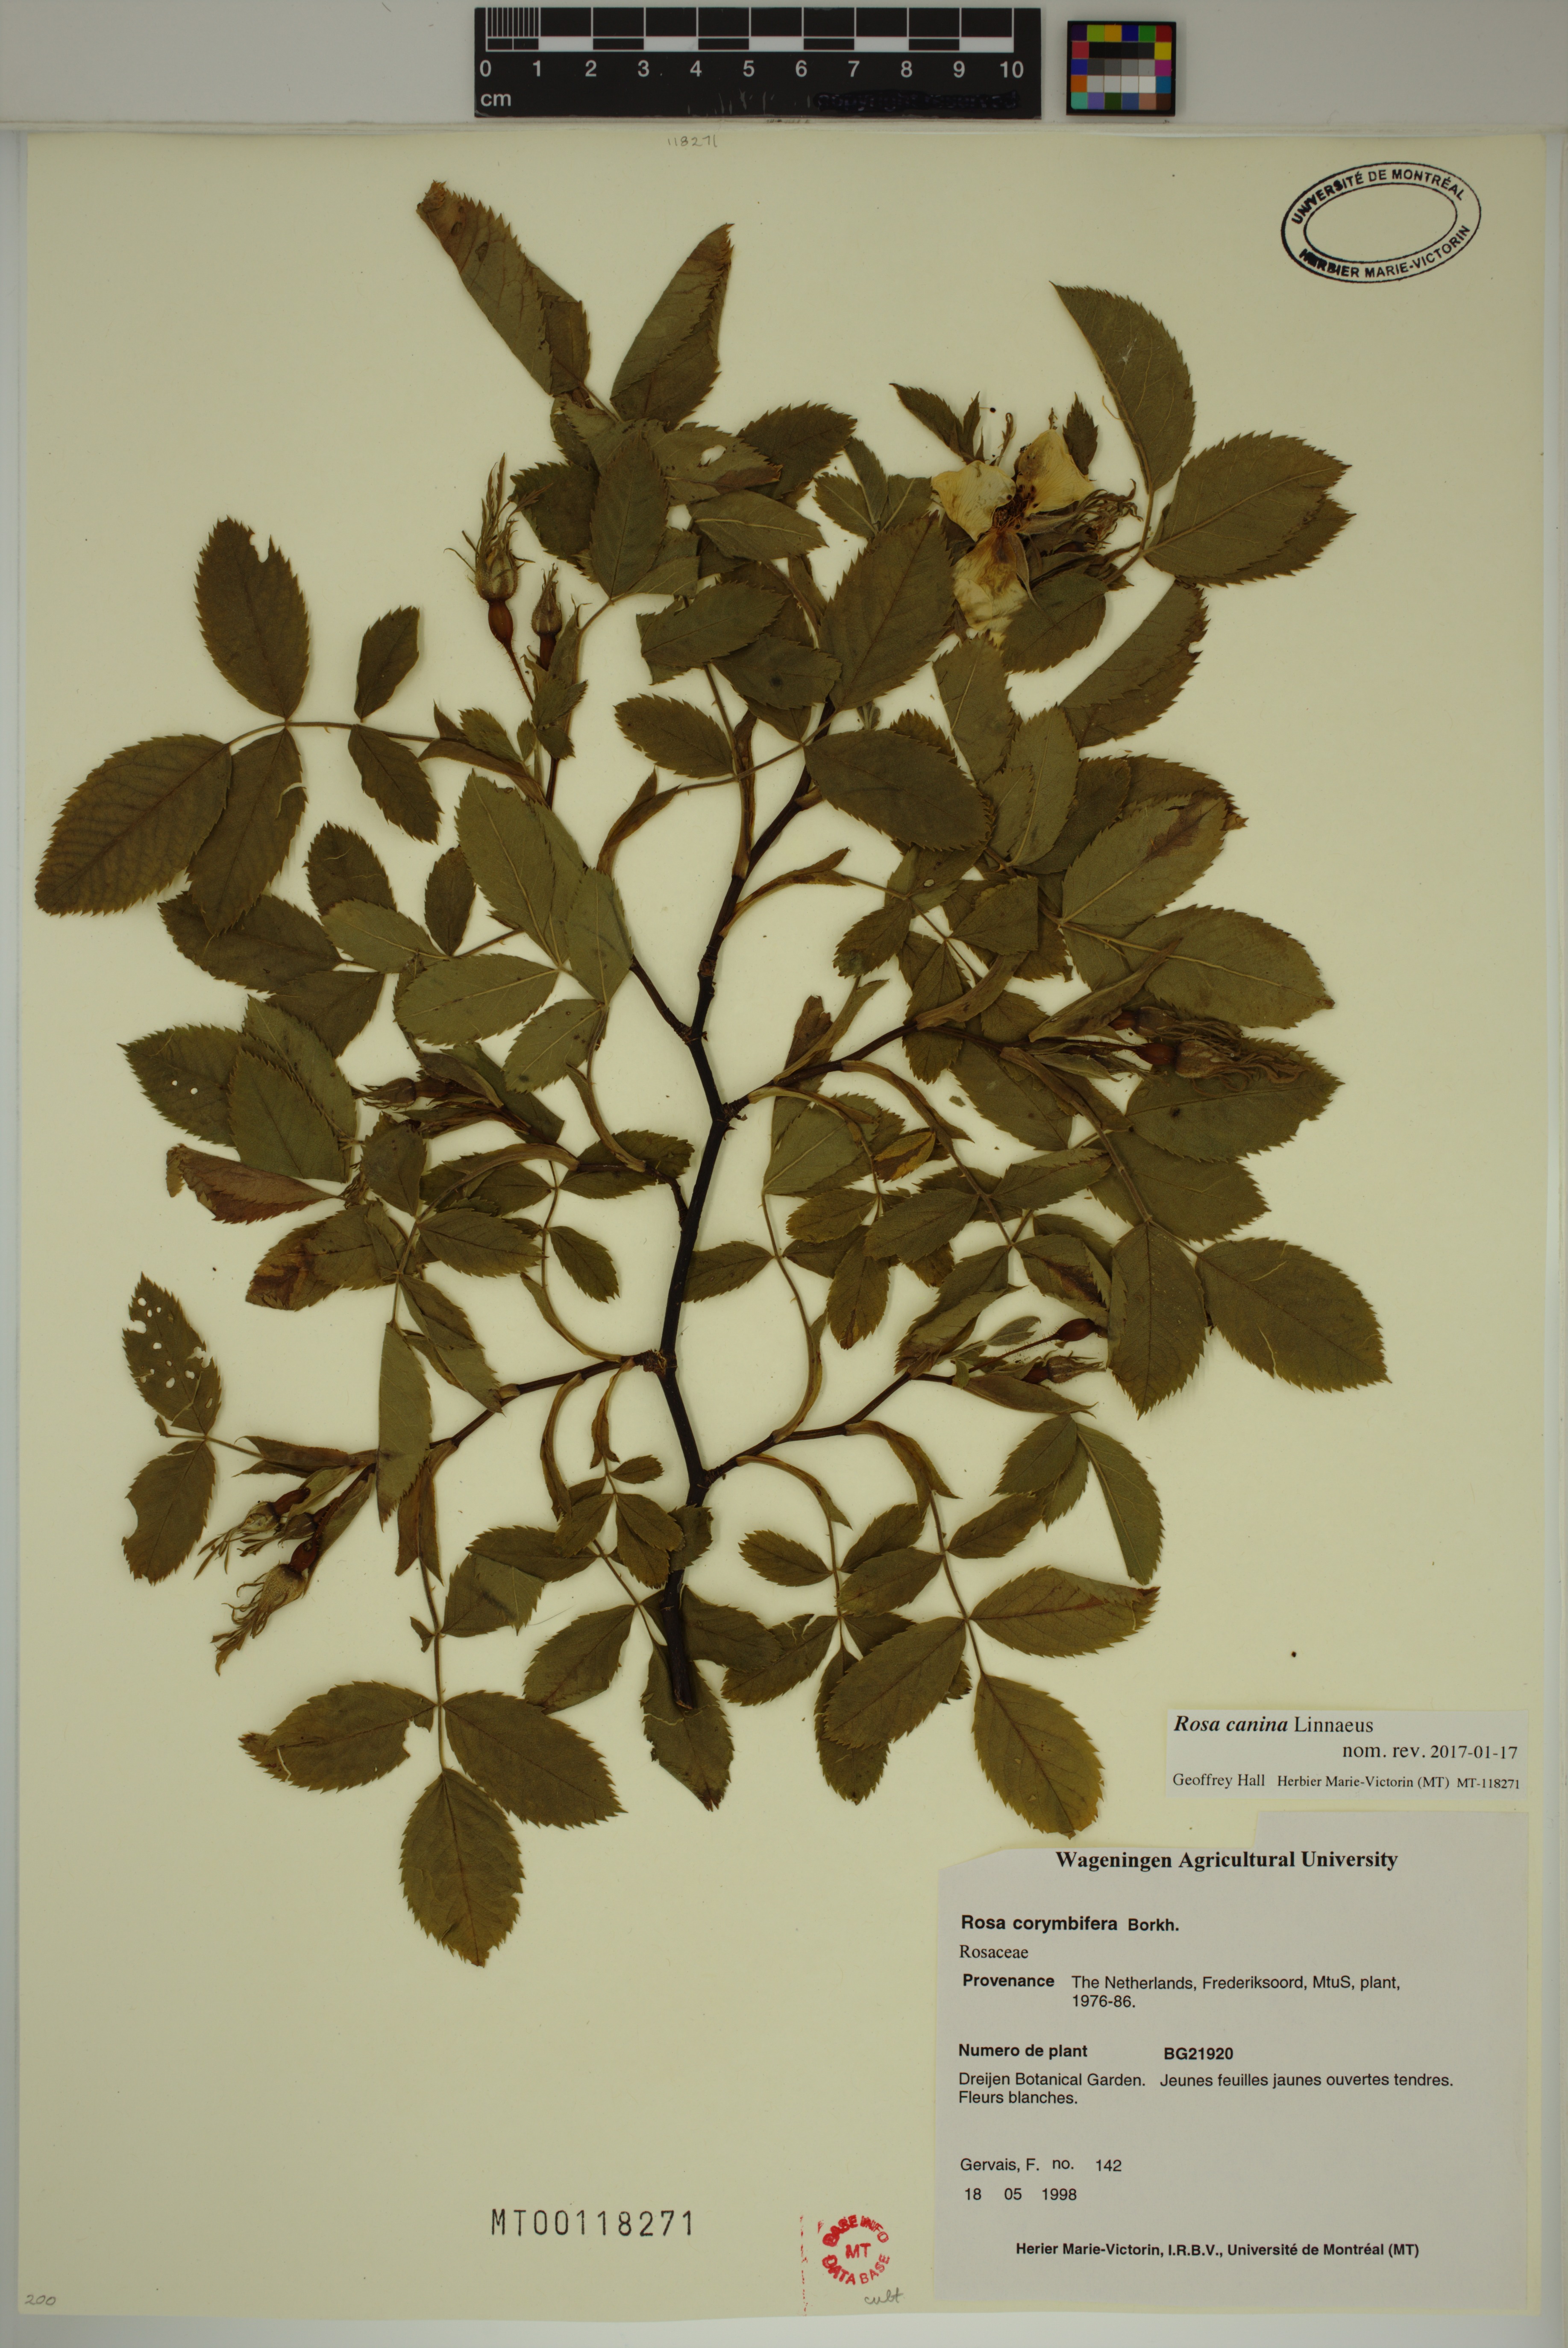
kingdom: Plantae
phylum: Tracheophyta
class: Magnoliopsida
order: Rosales
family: Rosaceae
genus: Rosa
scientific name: Rosa canina
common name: Dog rose
